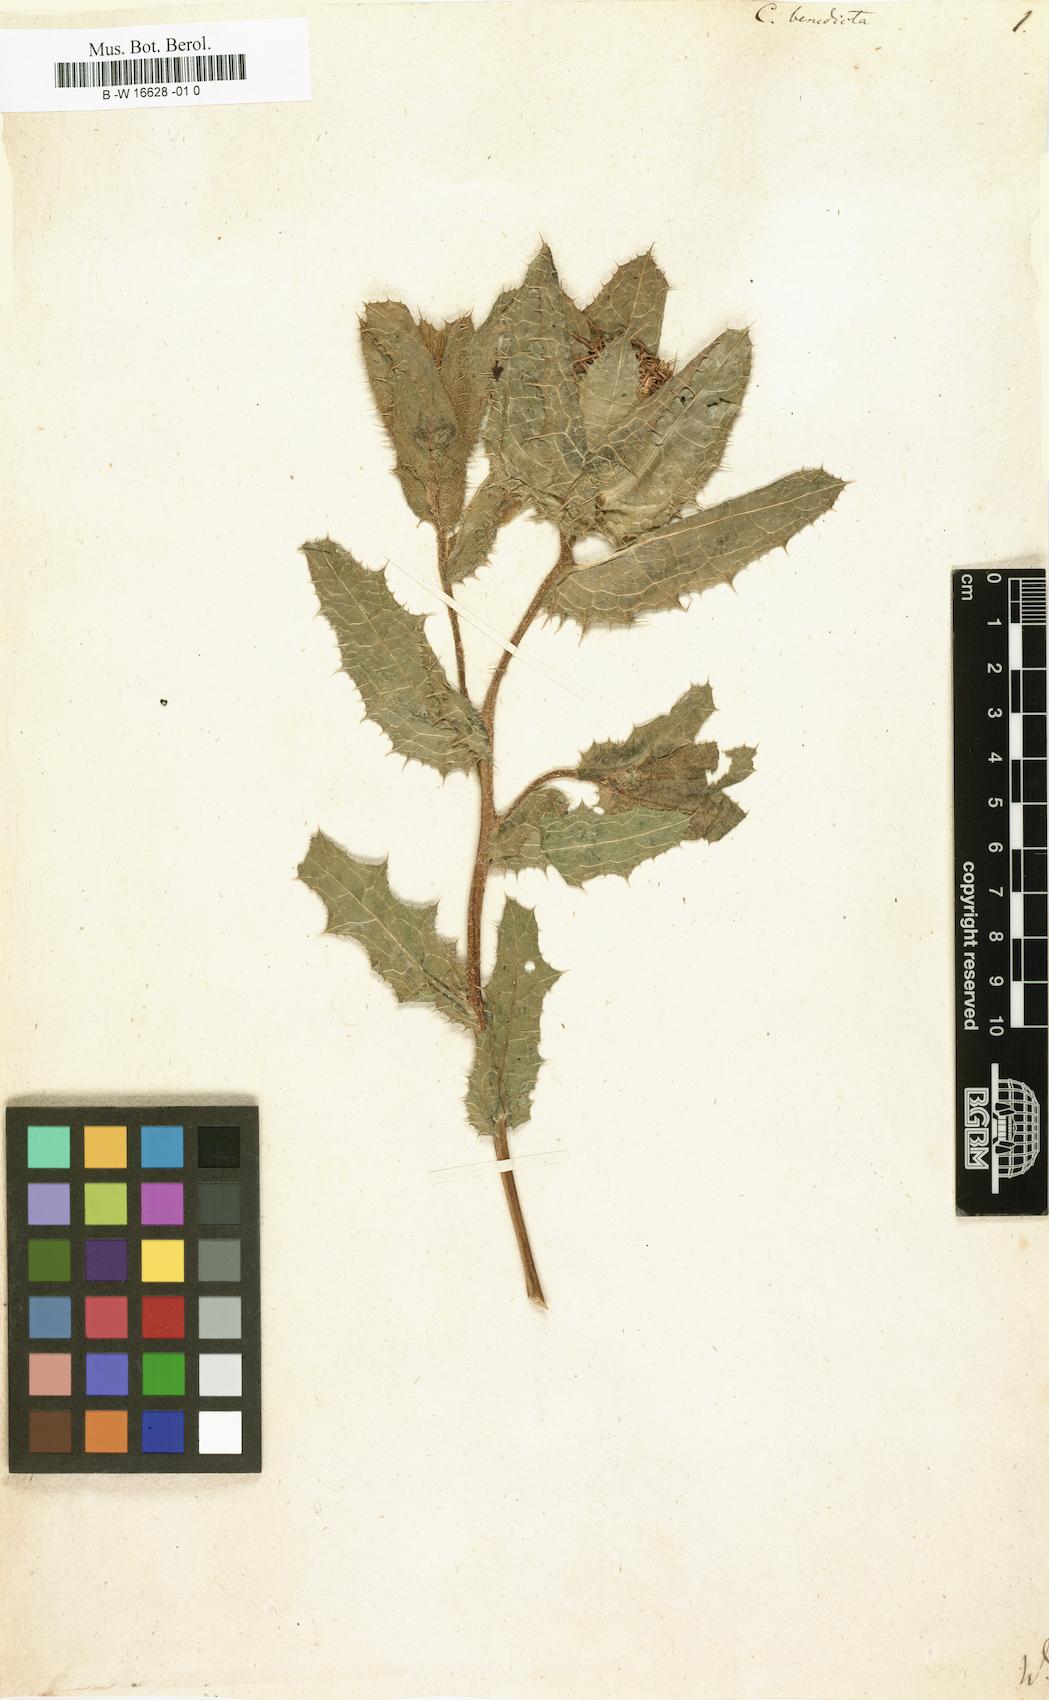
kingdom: Plantae
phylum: Tracheophyta
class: Magnoliopsida
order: Asterales
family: Asteraceae
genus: Centaurea
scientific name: Centaurea benedicta
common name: Blessed thistle
